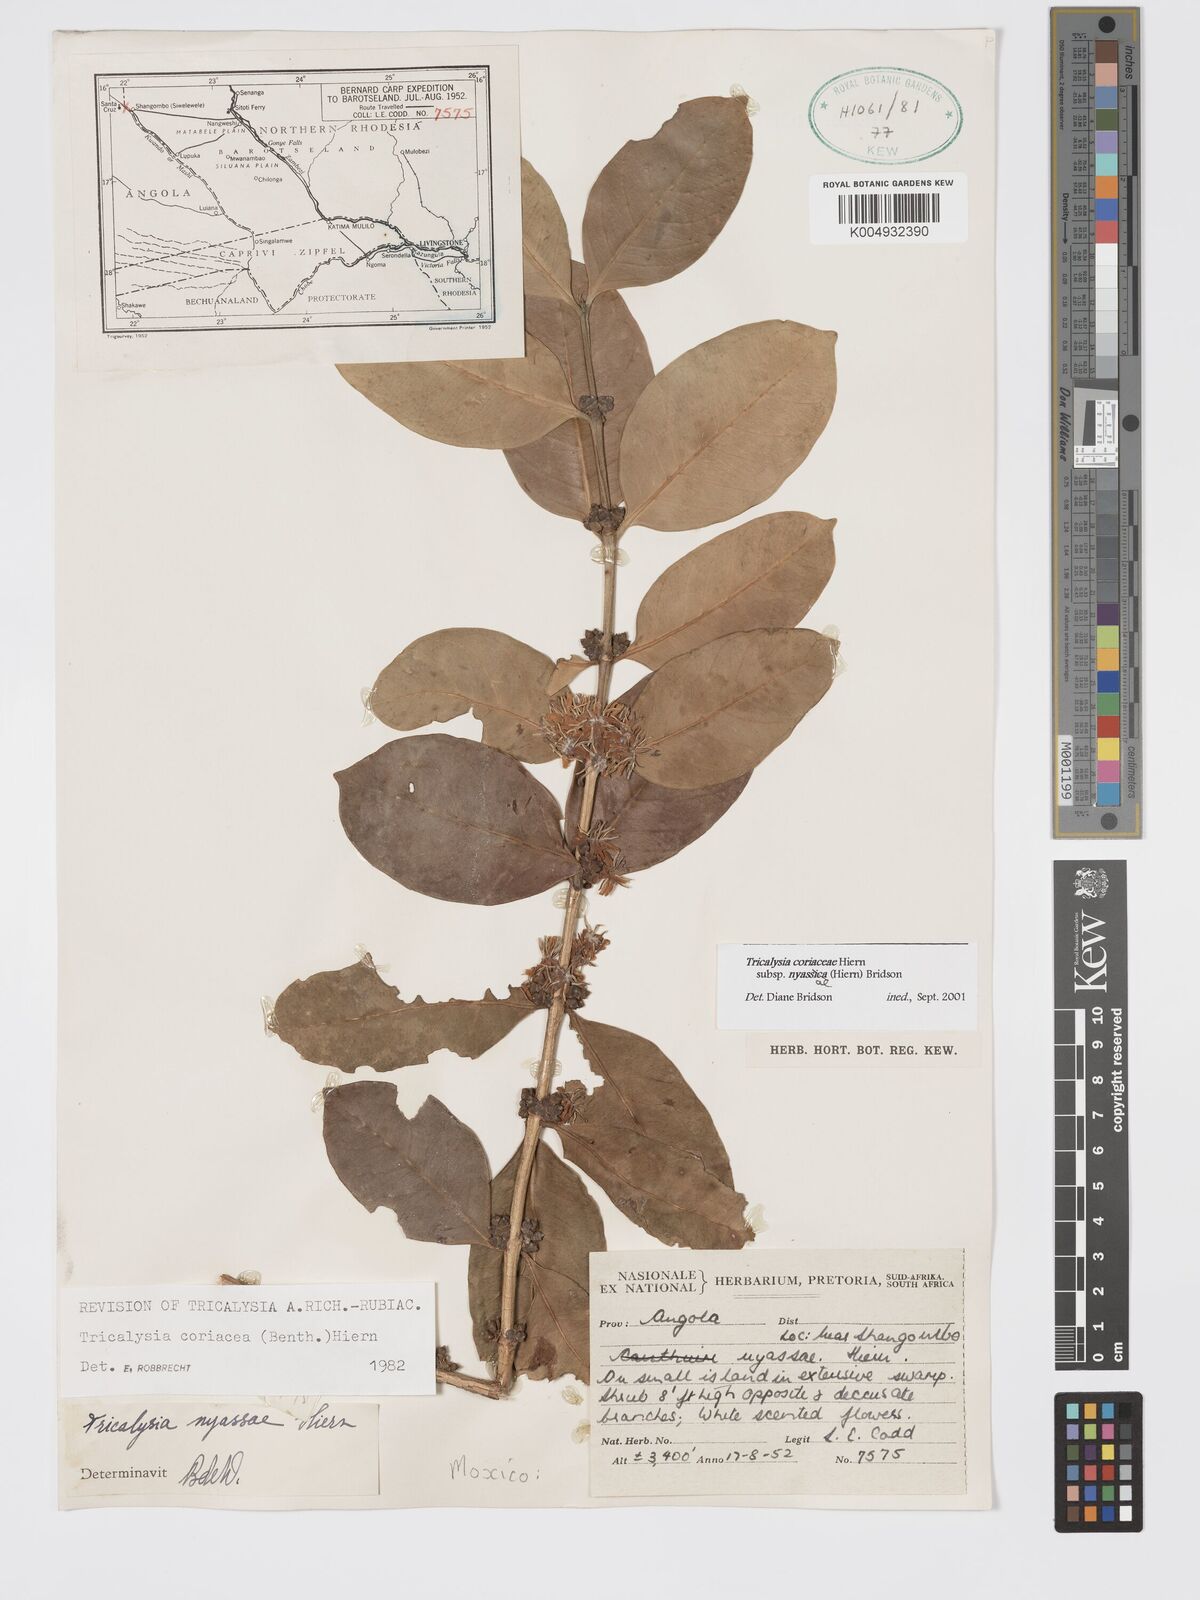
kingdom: Plantae
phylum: Tracheophyta
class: Magnoliopsida
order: Gentianales
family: Rubiaceae
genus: Tricalysia
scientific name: Tricalysia coriacea
